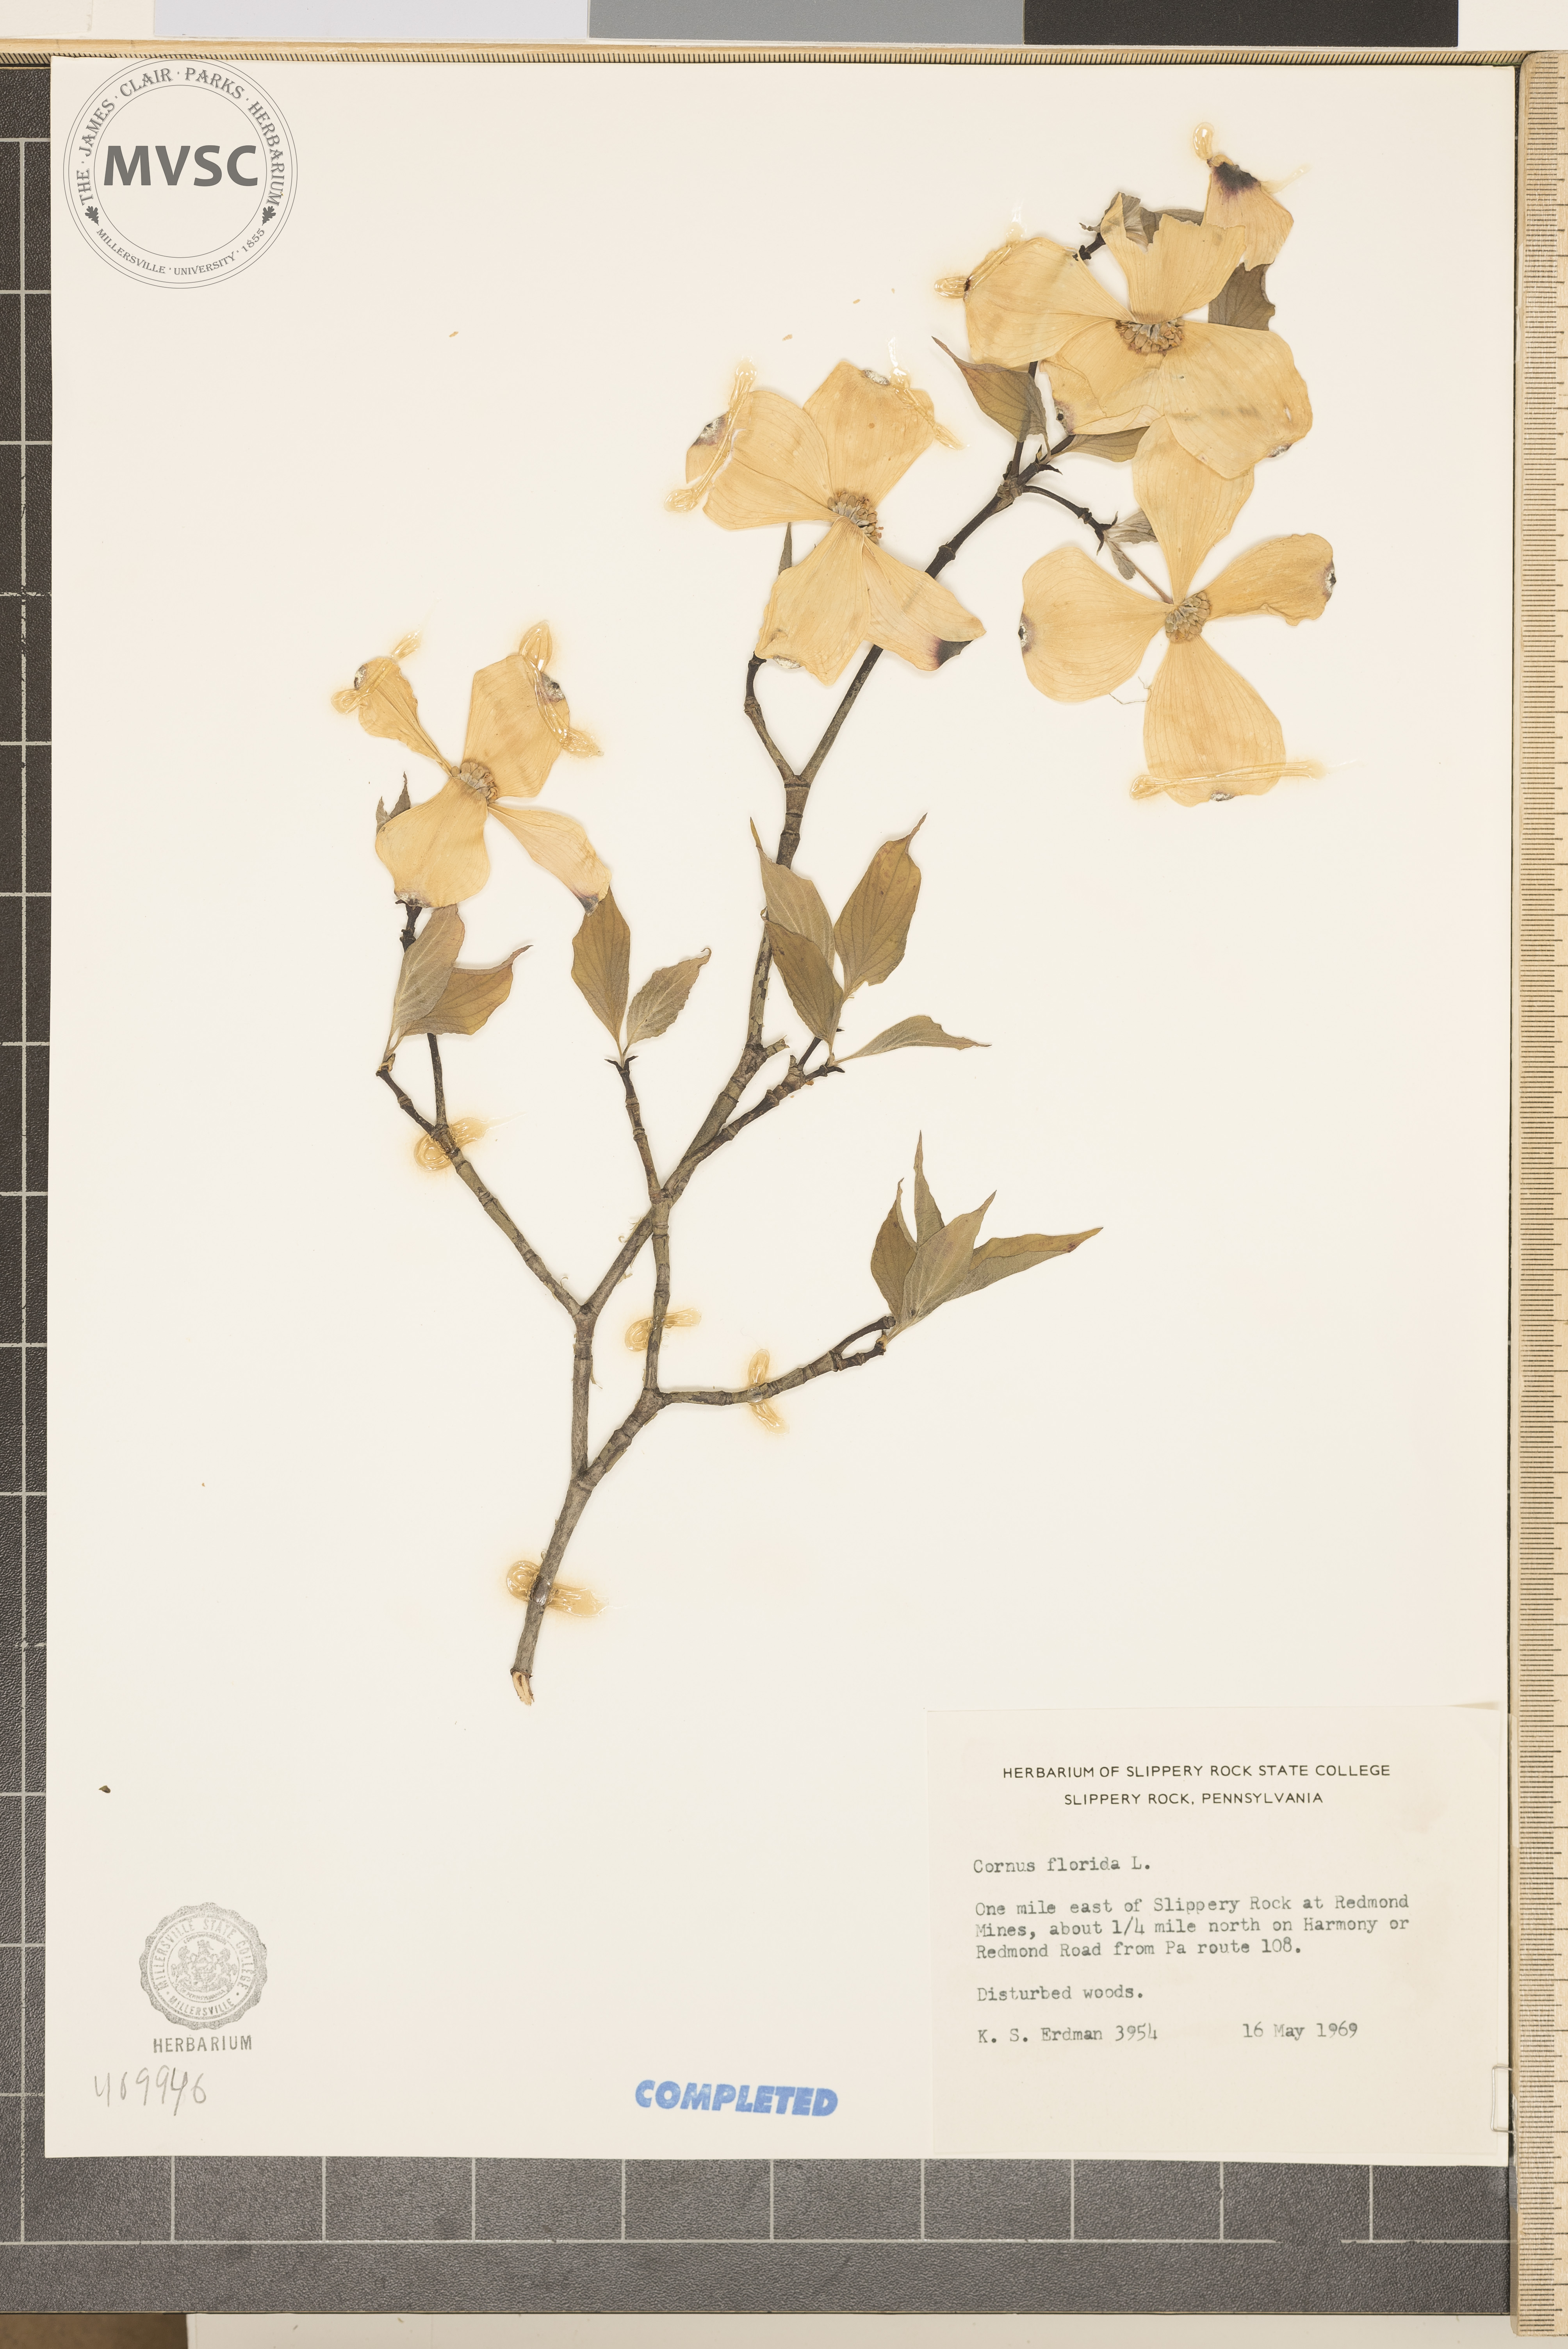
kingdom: Plantae
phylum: Tracheophyta
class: Magnoliopsida
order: Cornales
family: Cornaceae
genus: Cornus
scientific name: Cornus florida
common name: Flowering dogwood
